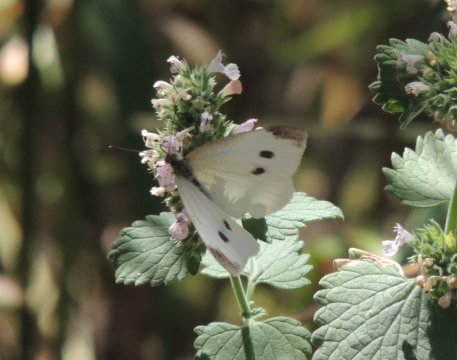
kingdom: Animalia
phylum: Arthropoda
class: Insecta
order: Lepidoptera
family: Pieridae
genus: Pieris
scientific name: Pieris rapae
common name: Cabbage White
